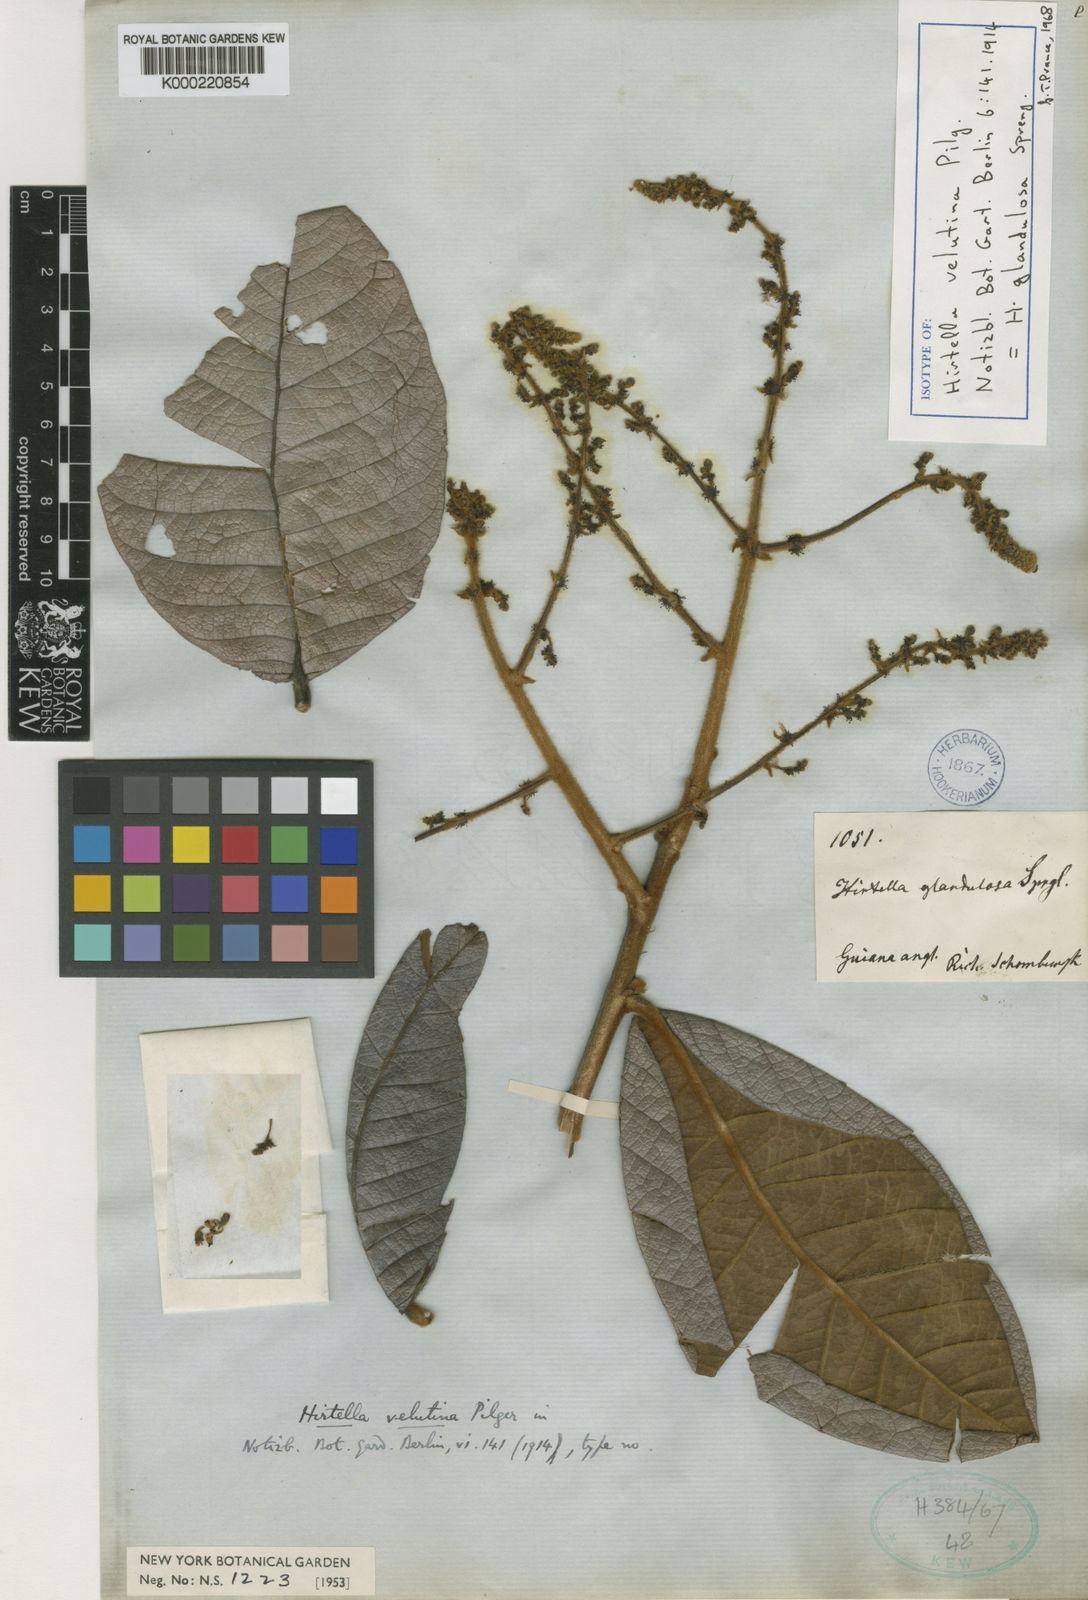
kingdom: Plantae
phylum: Tracheophyta
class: Magnoliopsida
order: Malpighiales
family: Chrysobalanaceae
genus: Hirtella
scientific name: Hirtella glandulosa
